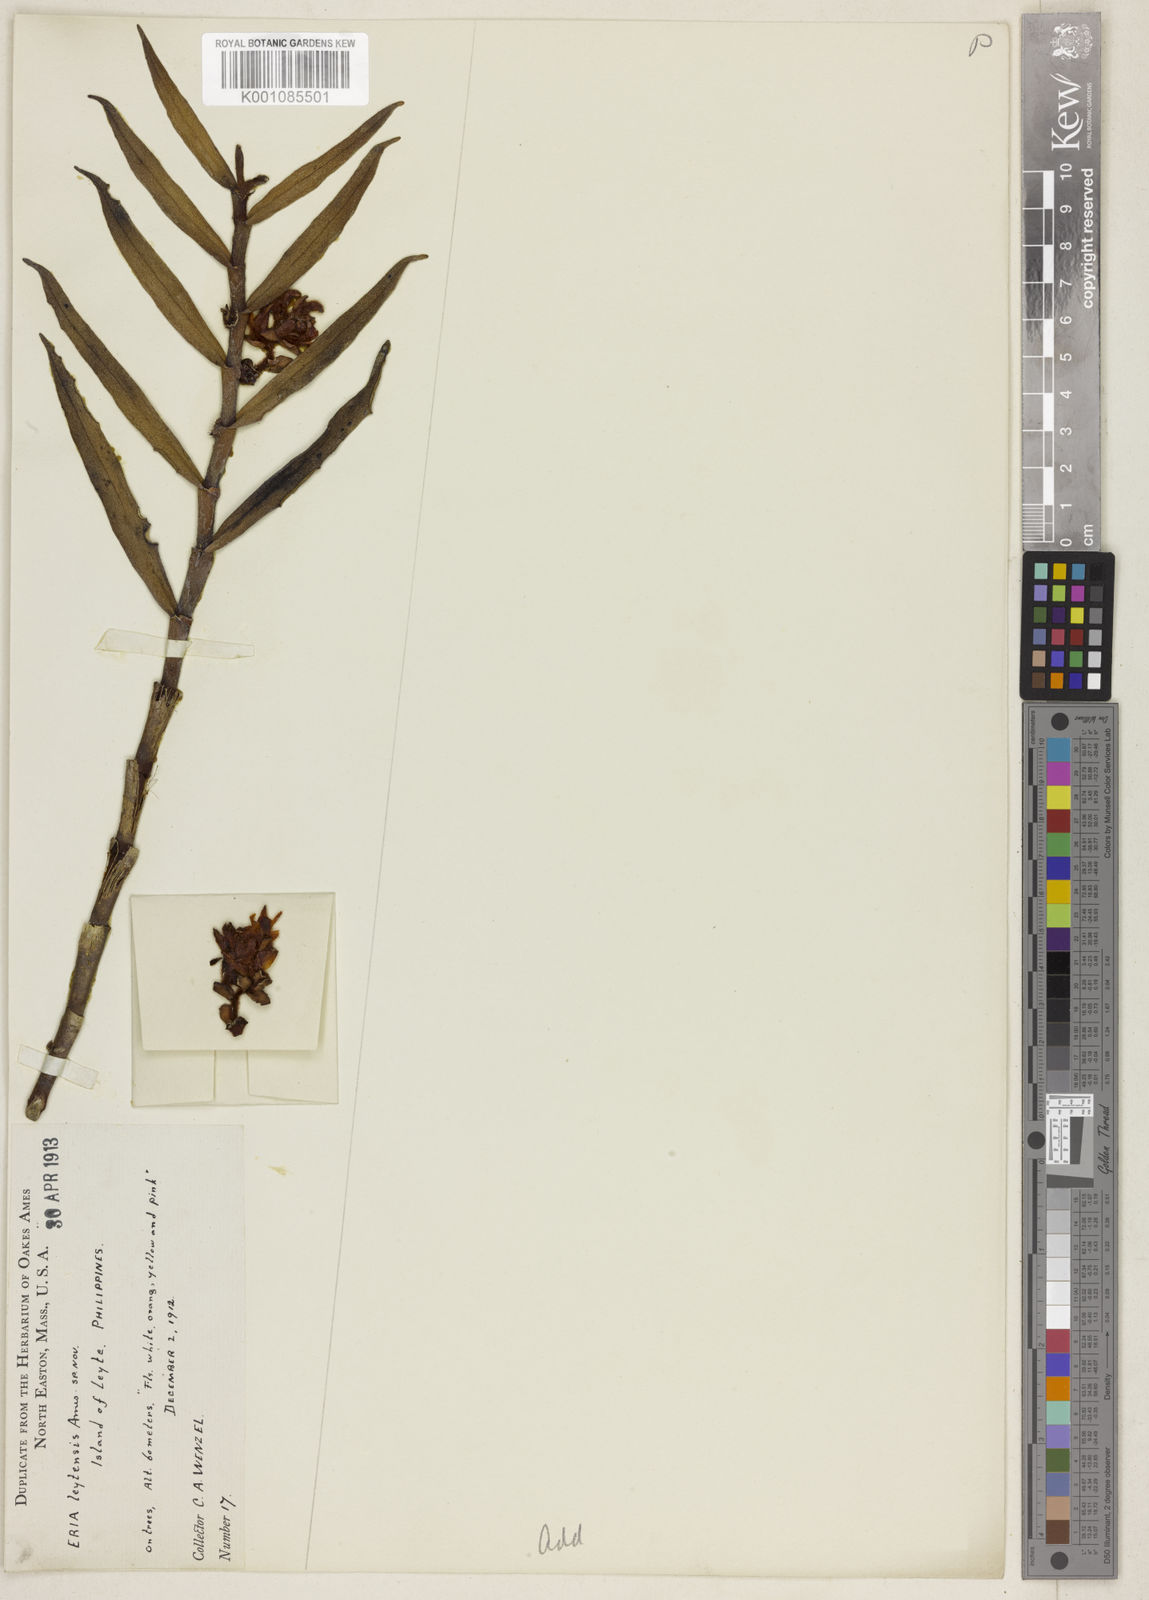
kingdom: Plantae
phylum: Tracheophyta
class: Liliopsida
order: Asparagales
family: Orchidaceae
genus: Trichotosia
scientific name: Trichotosia leytensis
